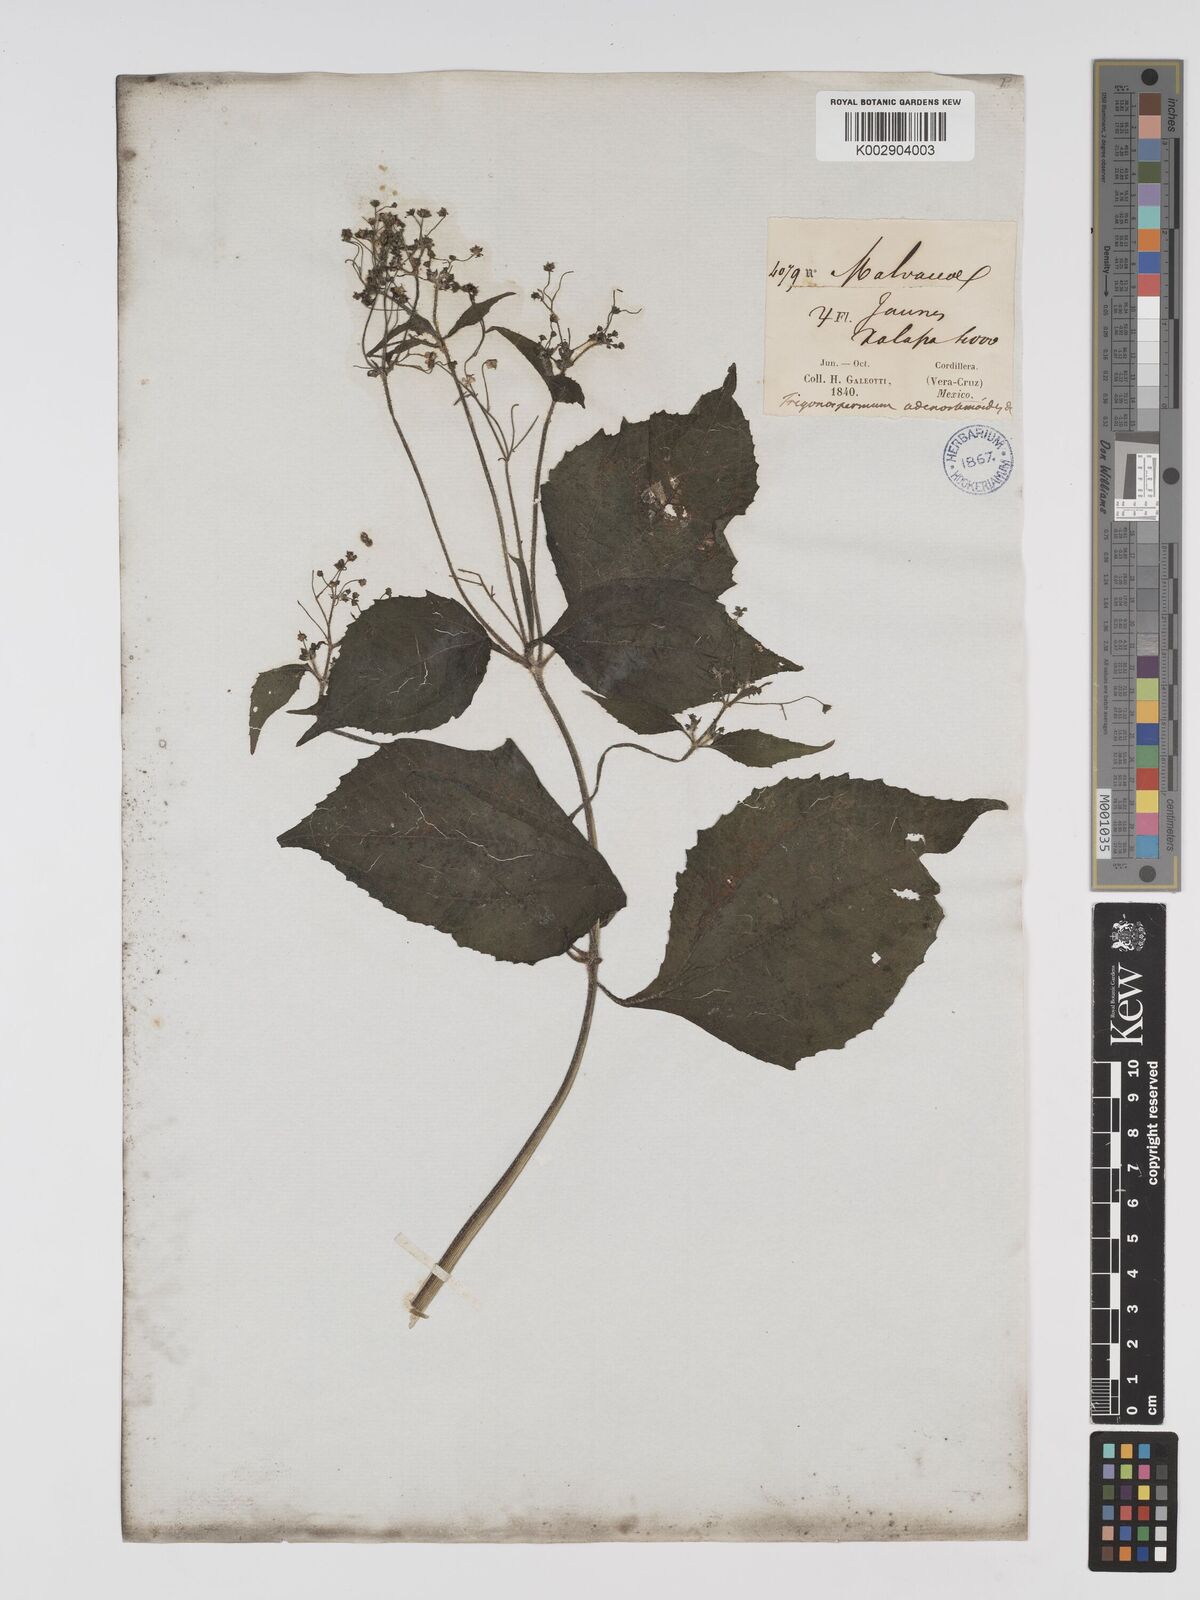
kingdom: Plantae
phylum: Tracheophyta
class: Magnoliopsida
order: Asterales
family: Asteraceae
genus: Trigonospermum
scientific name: Trigonospermum adenostemmoides
